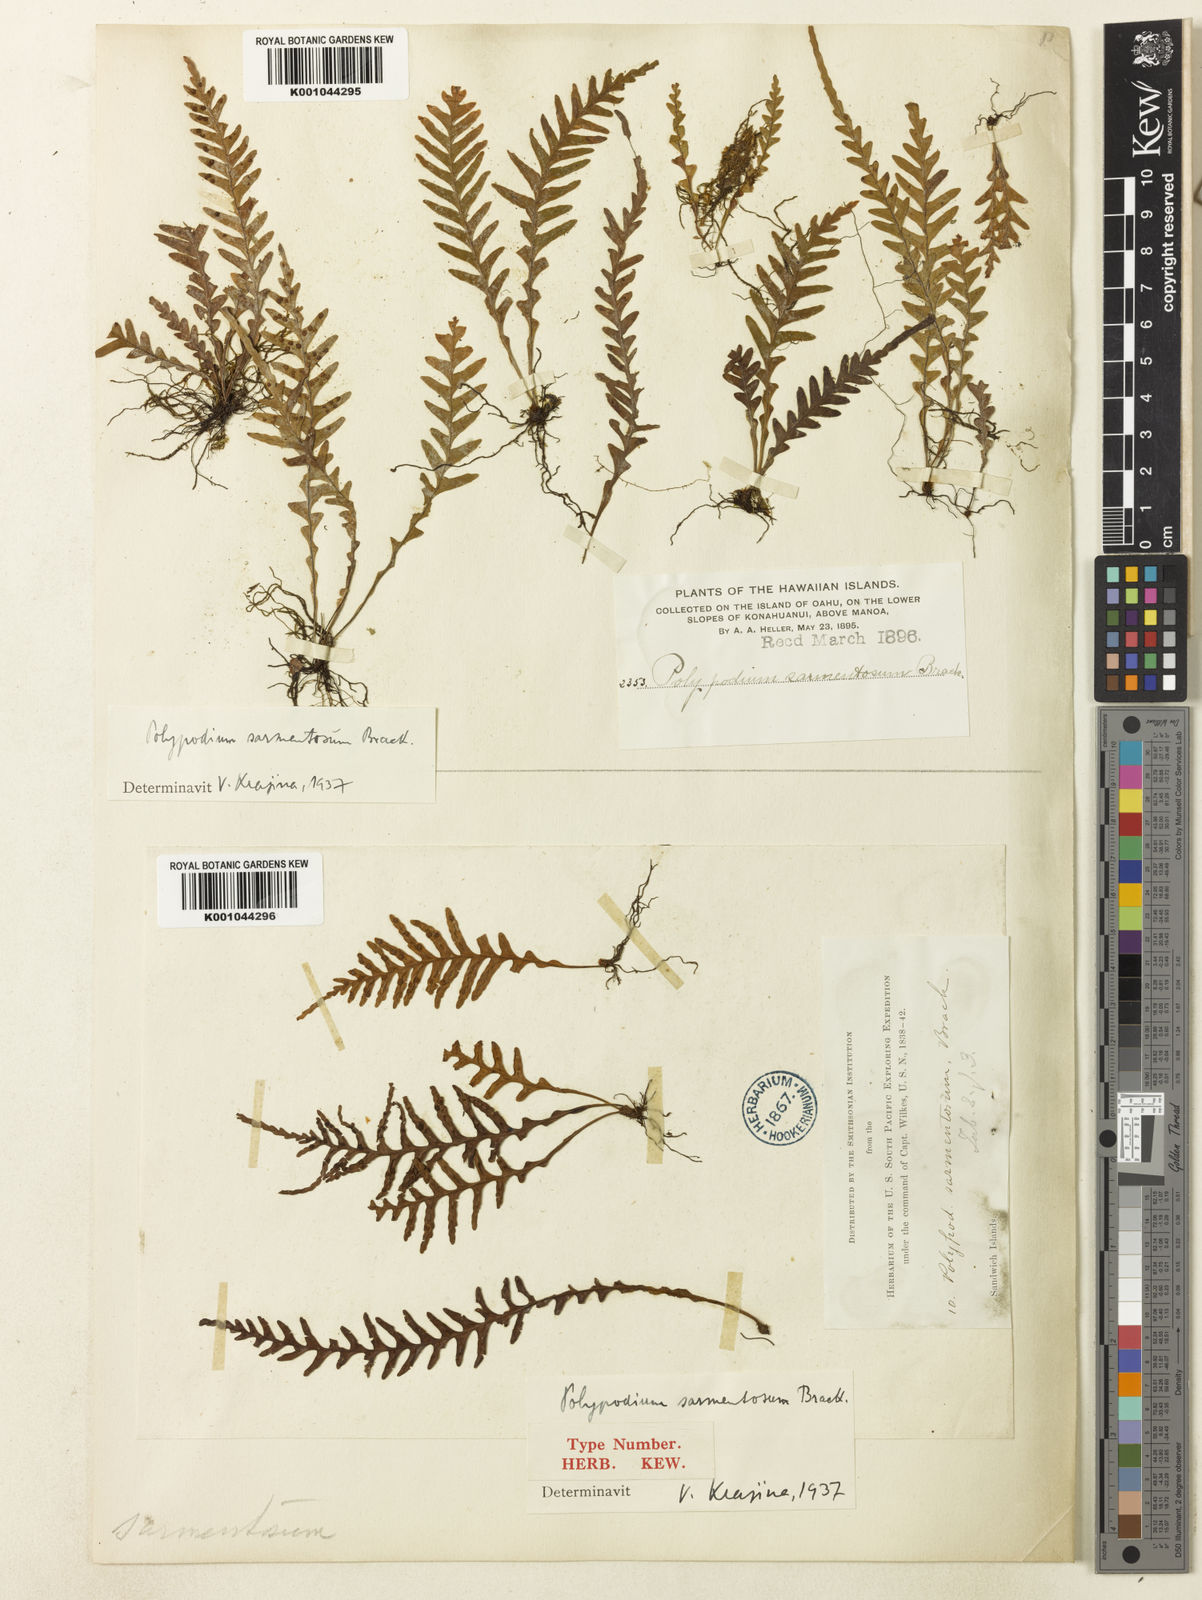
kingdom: Plantae
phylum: Tracheophyta
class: Polypodiopsida
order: Polypodiales
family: Polypodiaceae
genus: Adenophorus
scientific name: Adenophorus pinnatifidus
